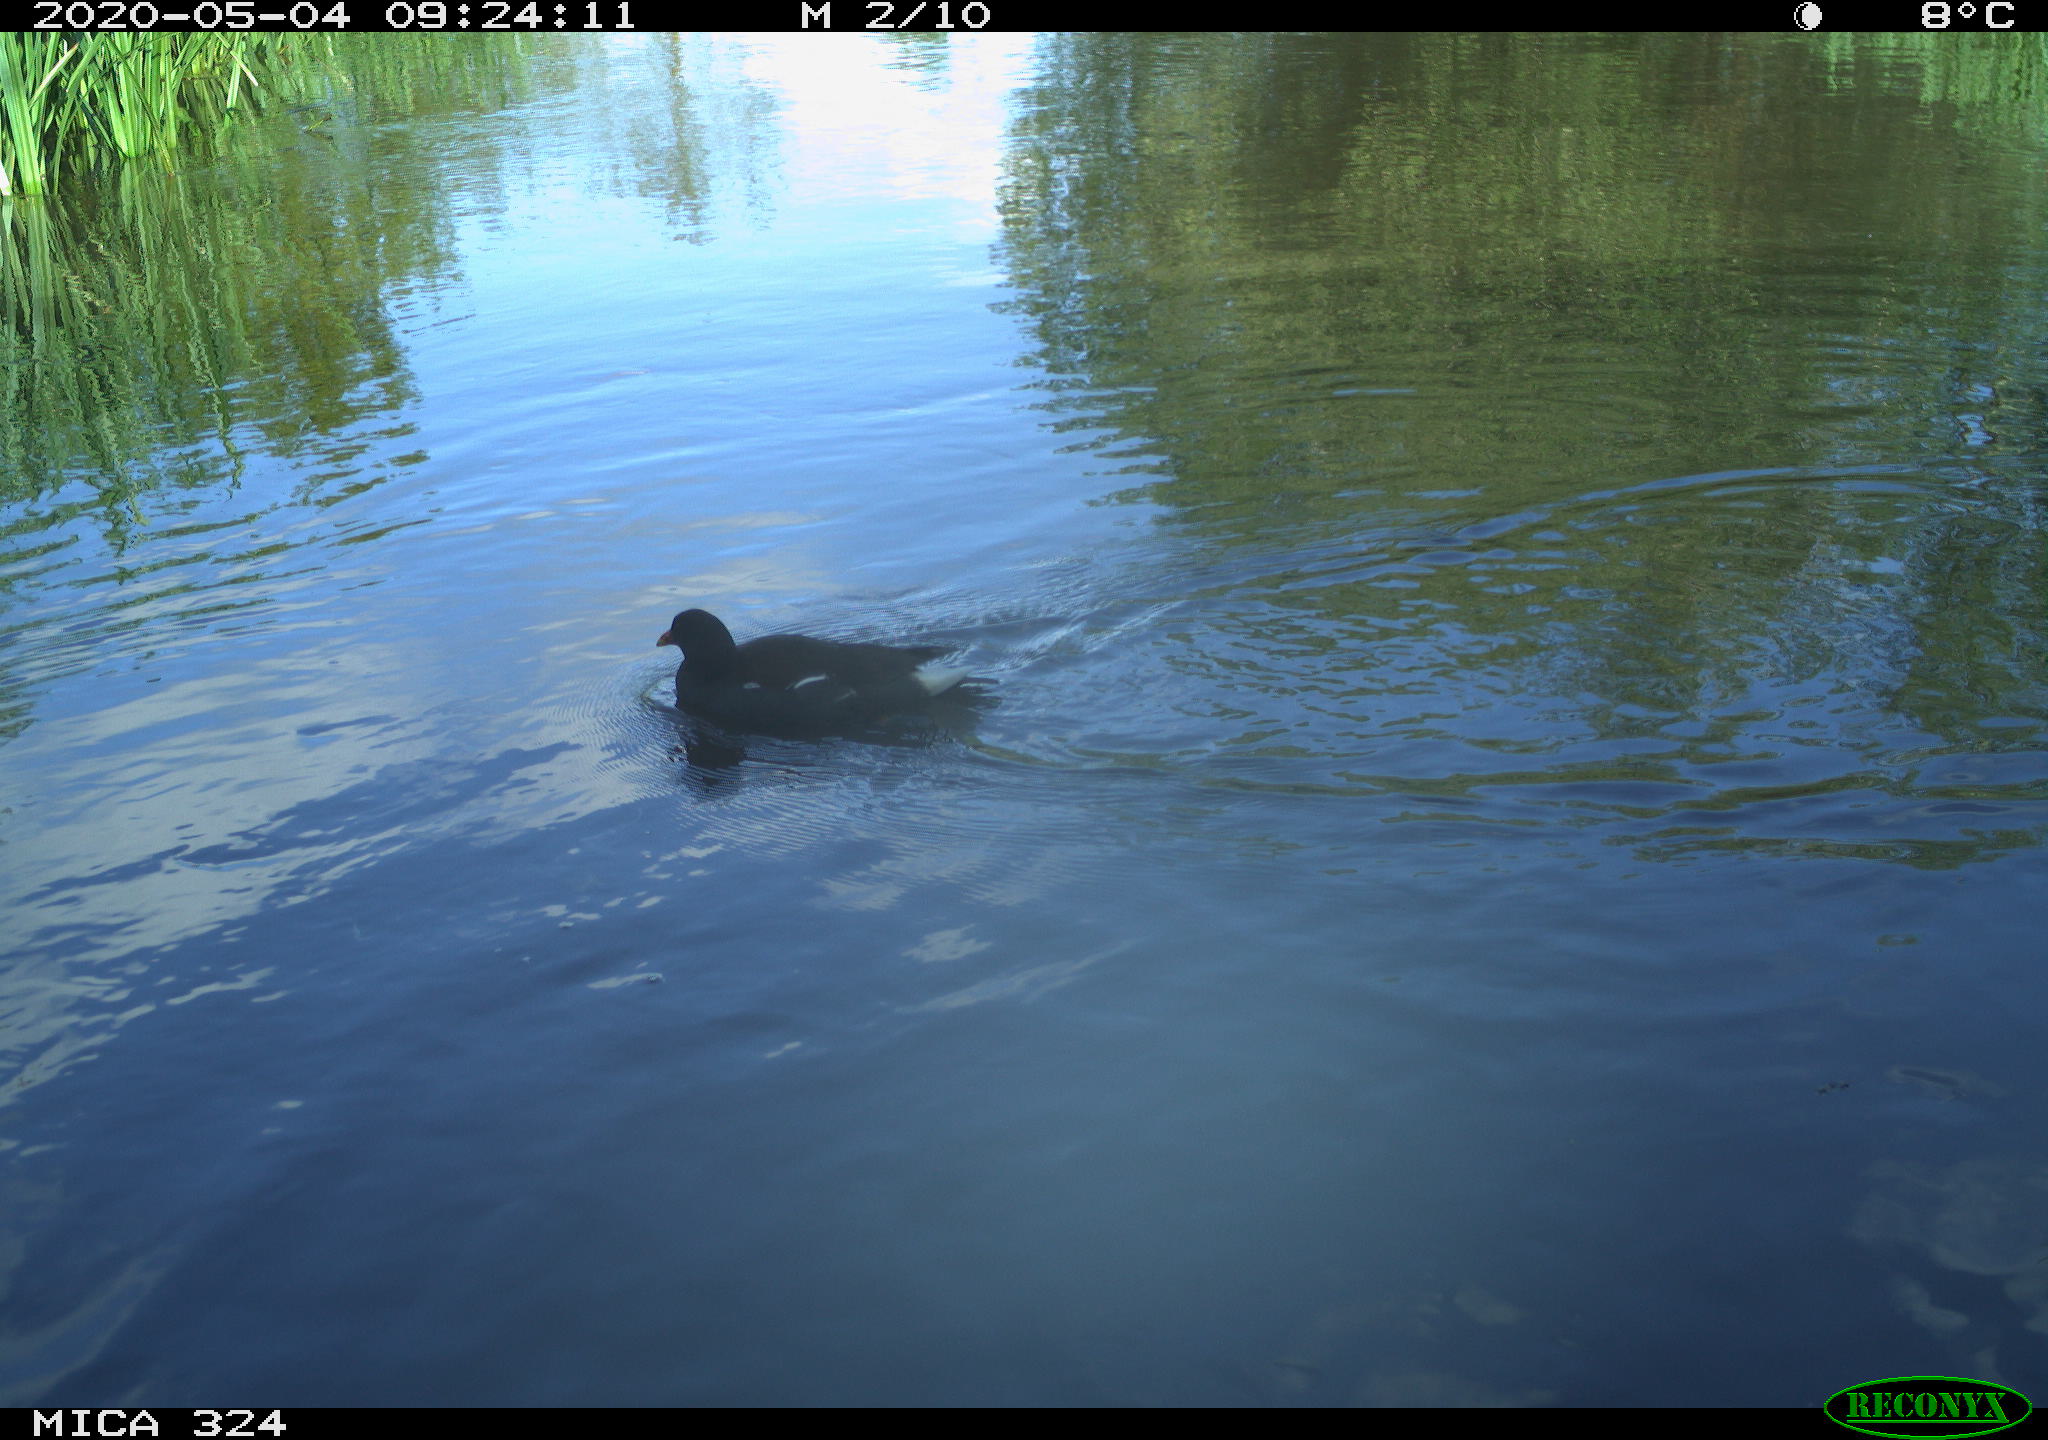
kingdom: Animalia
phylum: Chordata
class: Aves
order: Gruiformes
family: Rallidae
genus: Gallinula
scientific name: Gallinula chloropus
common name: Common moorhen
